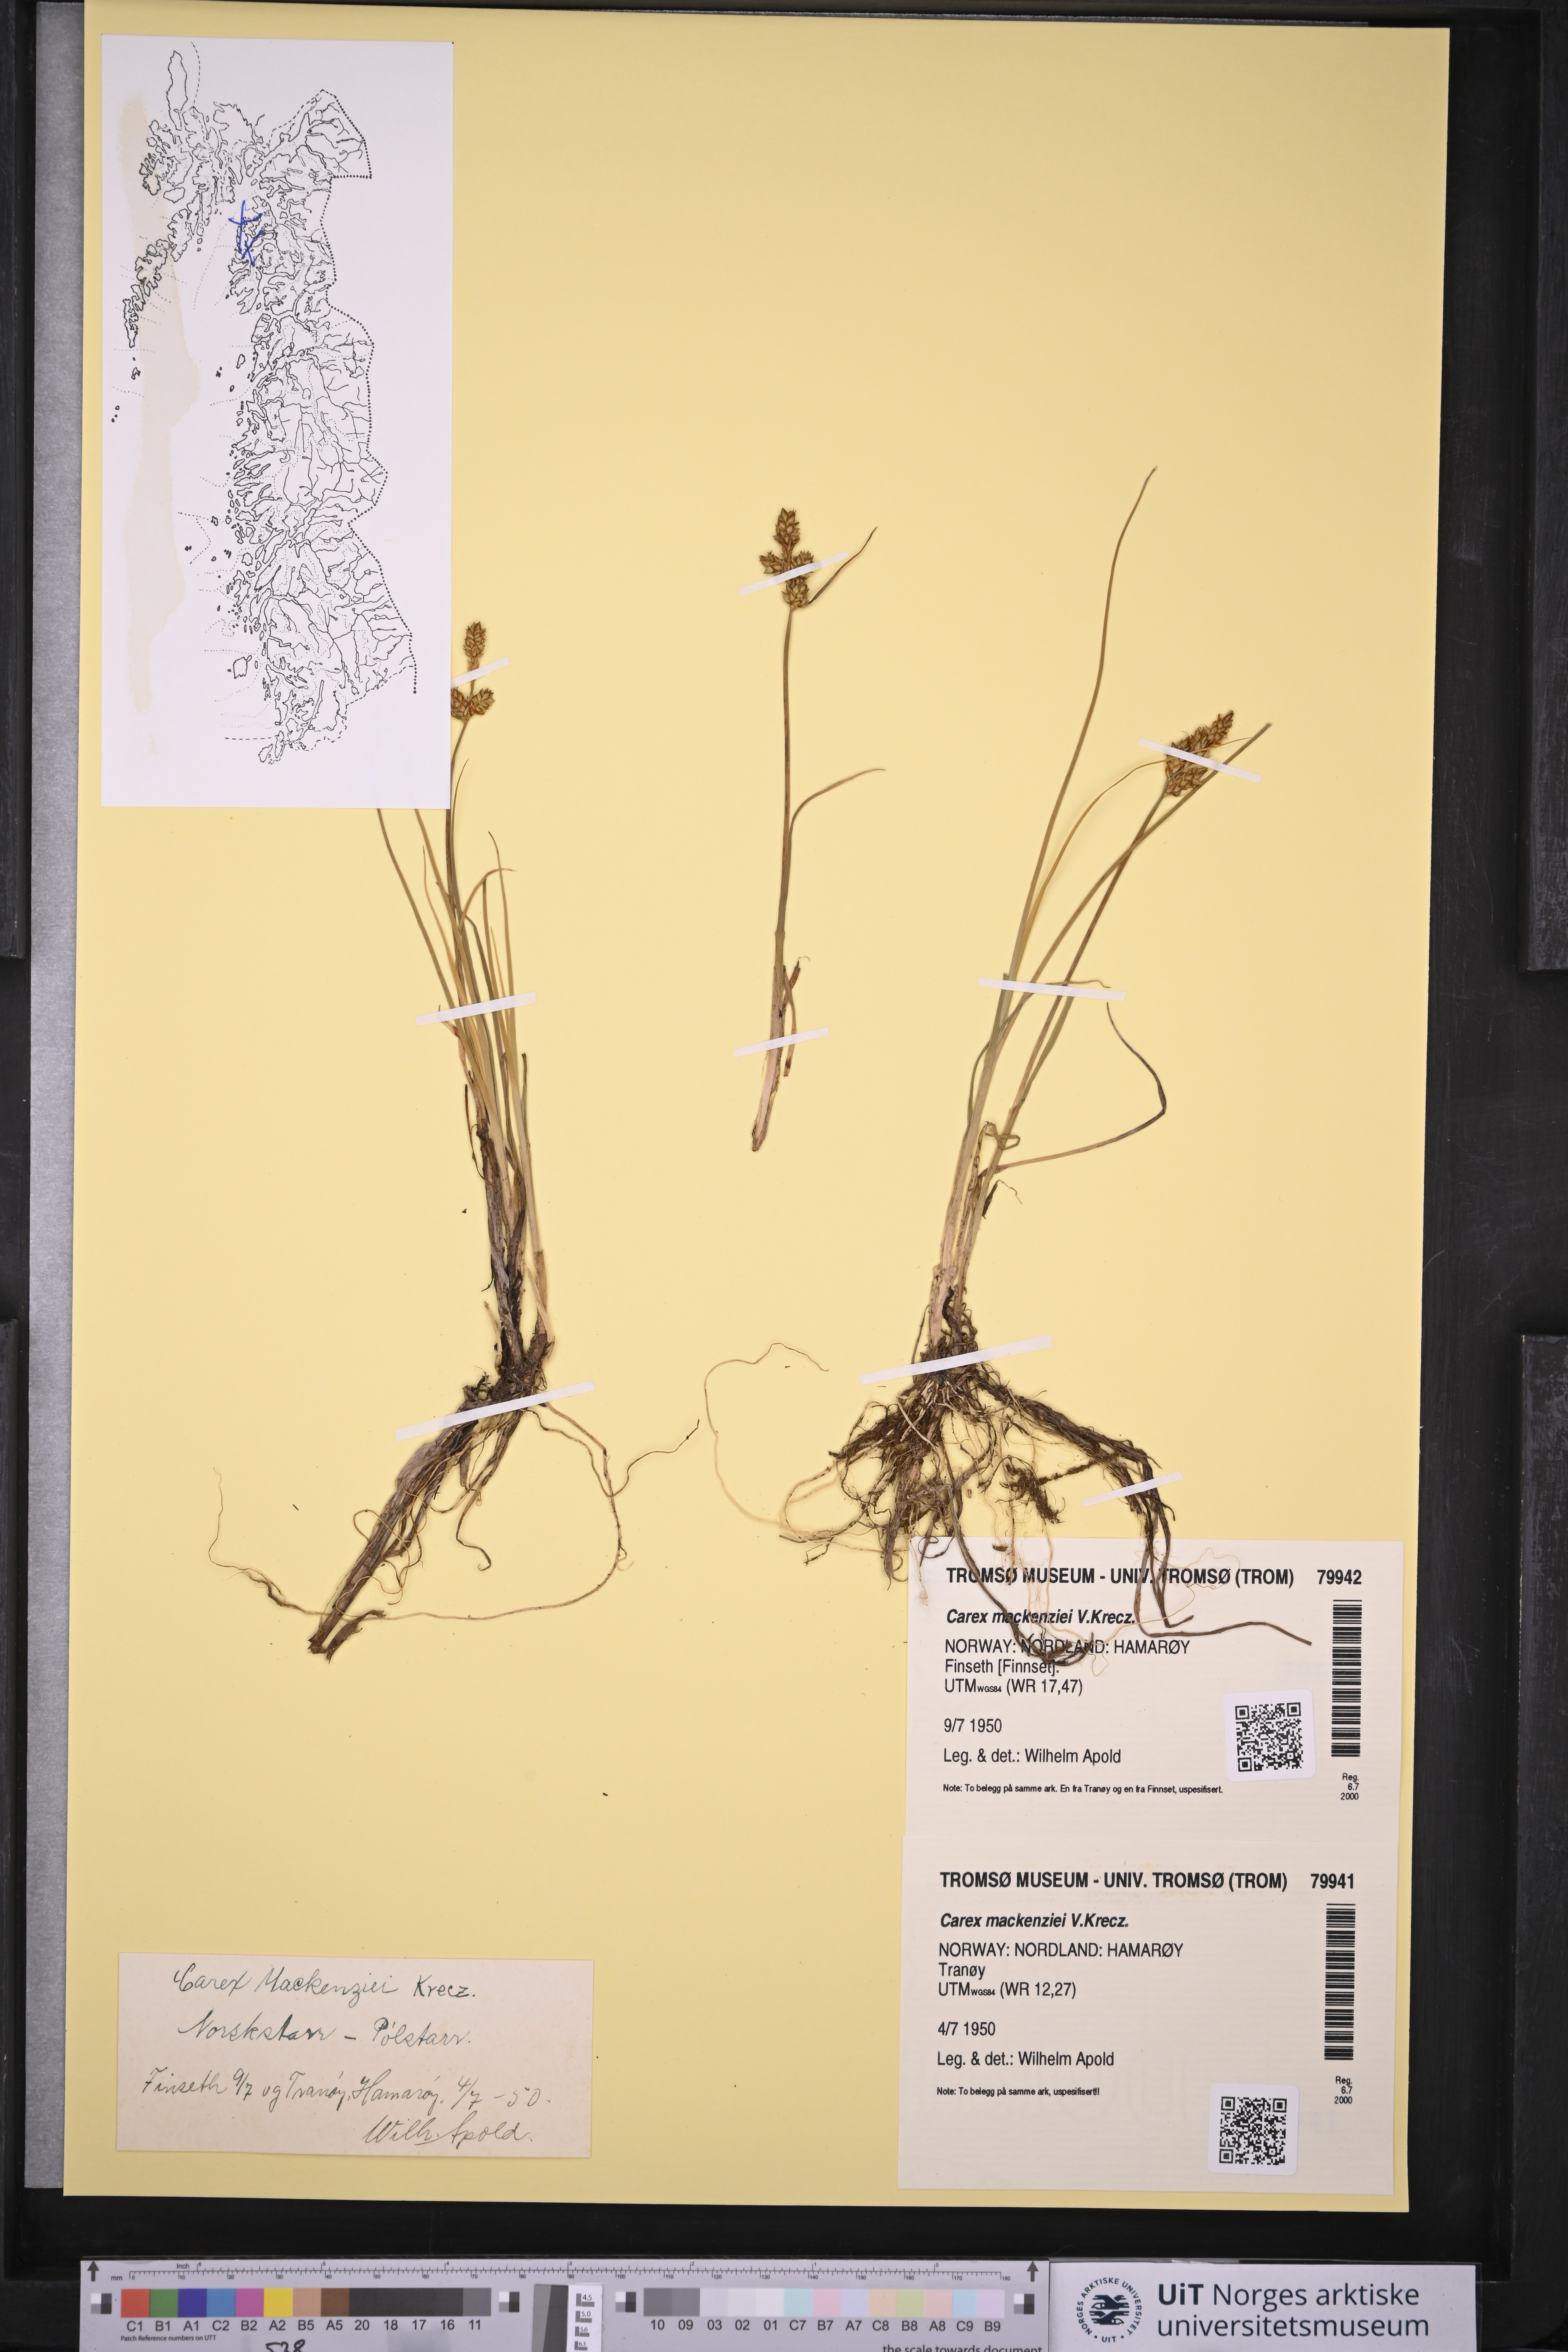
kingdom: Plantae
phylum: Tracheophyta
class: Liliopsida
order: Poales
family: Cyperaceae
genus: Carex
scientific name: Carex mackenziei
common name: Mackenzie's sedge
